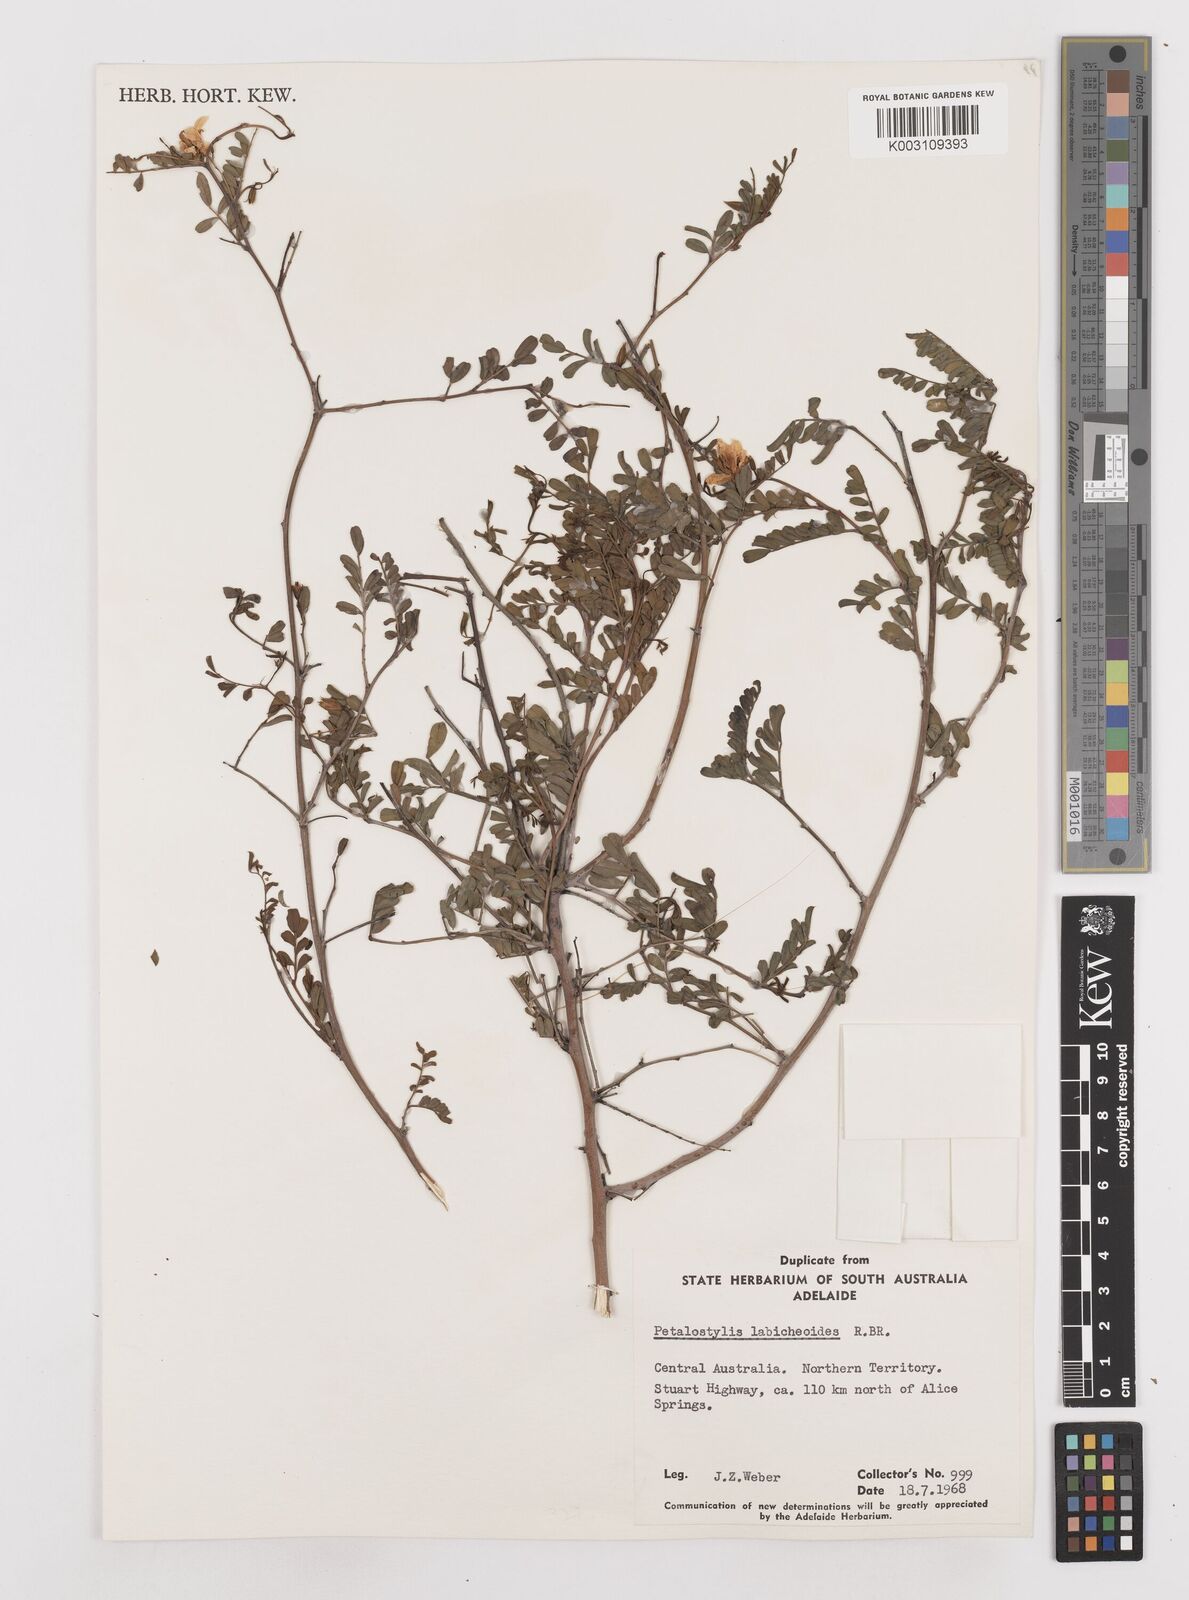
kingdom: Plantae
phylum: Tracheophyta
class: Magnoliopsida
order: Fabales
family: Fabaceae
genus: Petalostylis
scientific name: Petalostylis labicheoides
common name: Butterfly bush
